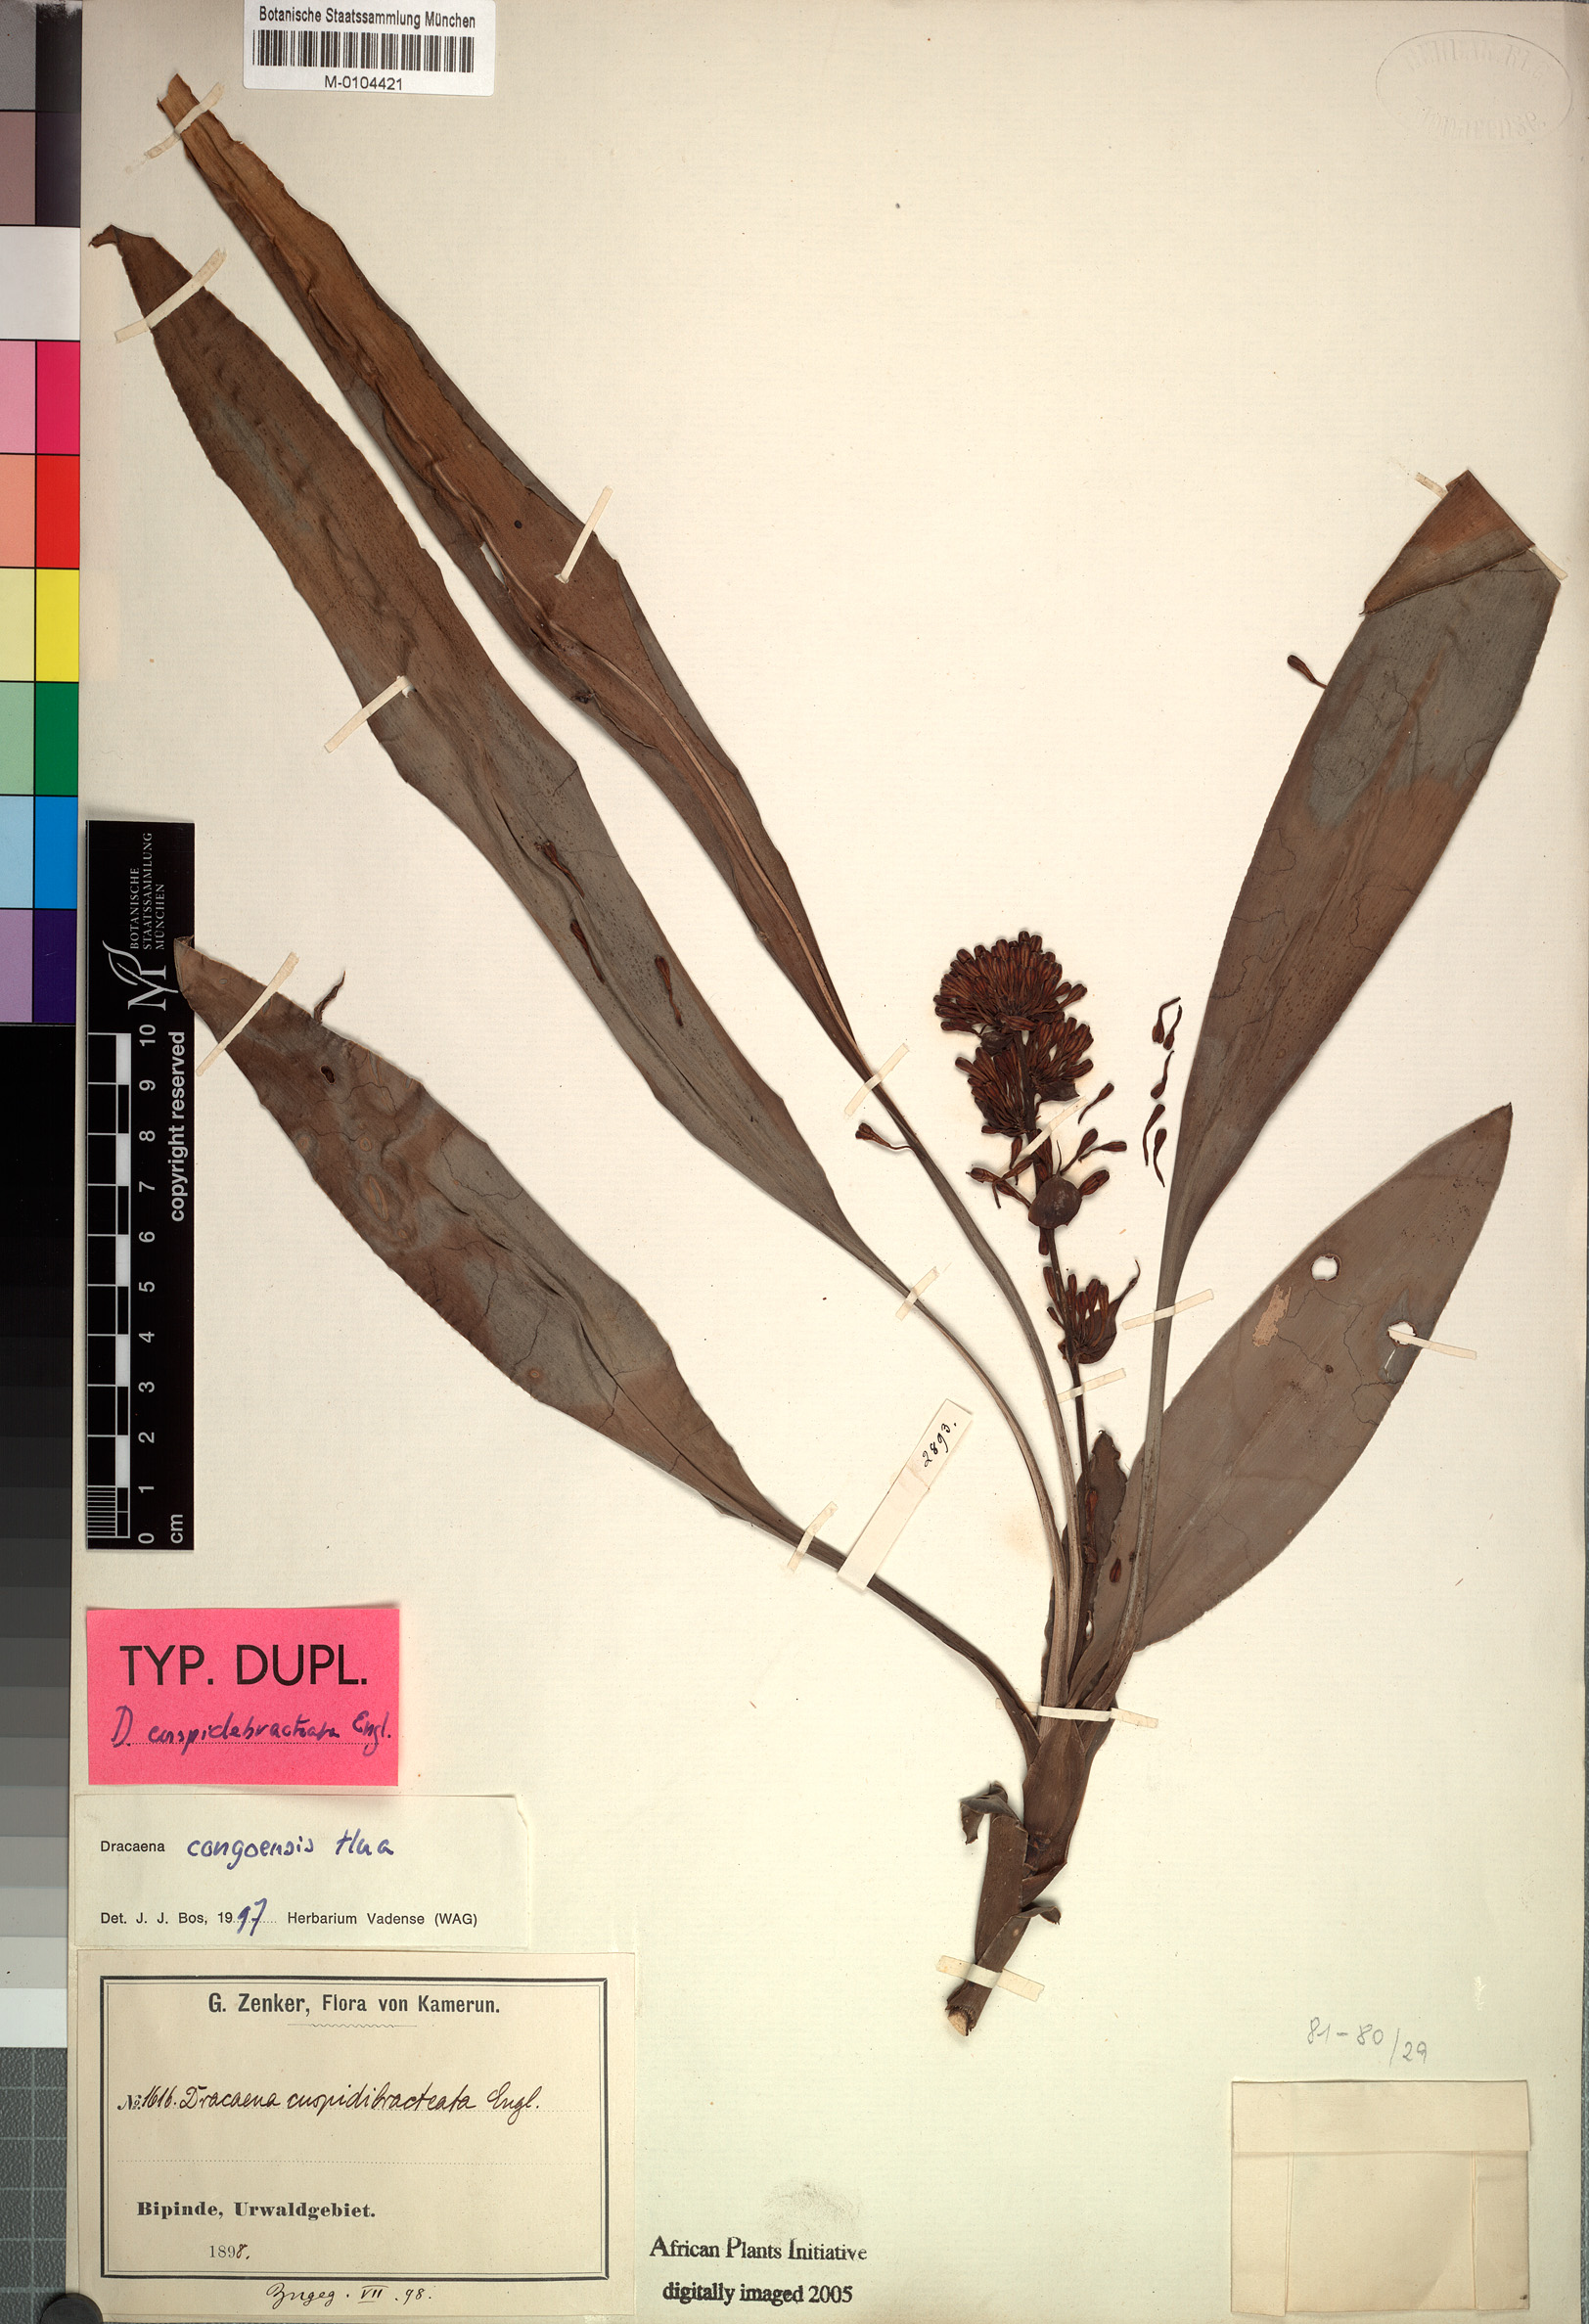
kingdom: Plantae
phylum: Tracheophyta
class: Liliopsida
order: Asparagales
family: Asparagaceae
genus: Dracaena
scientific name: Dracaena congolensis
